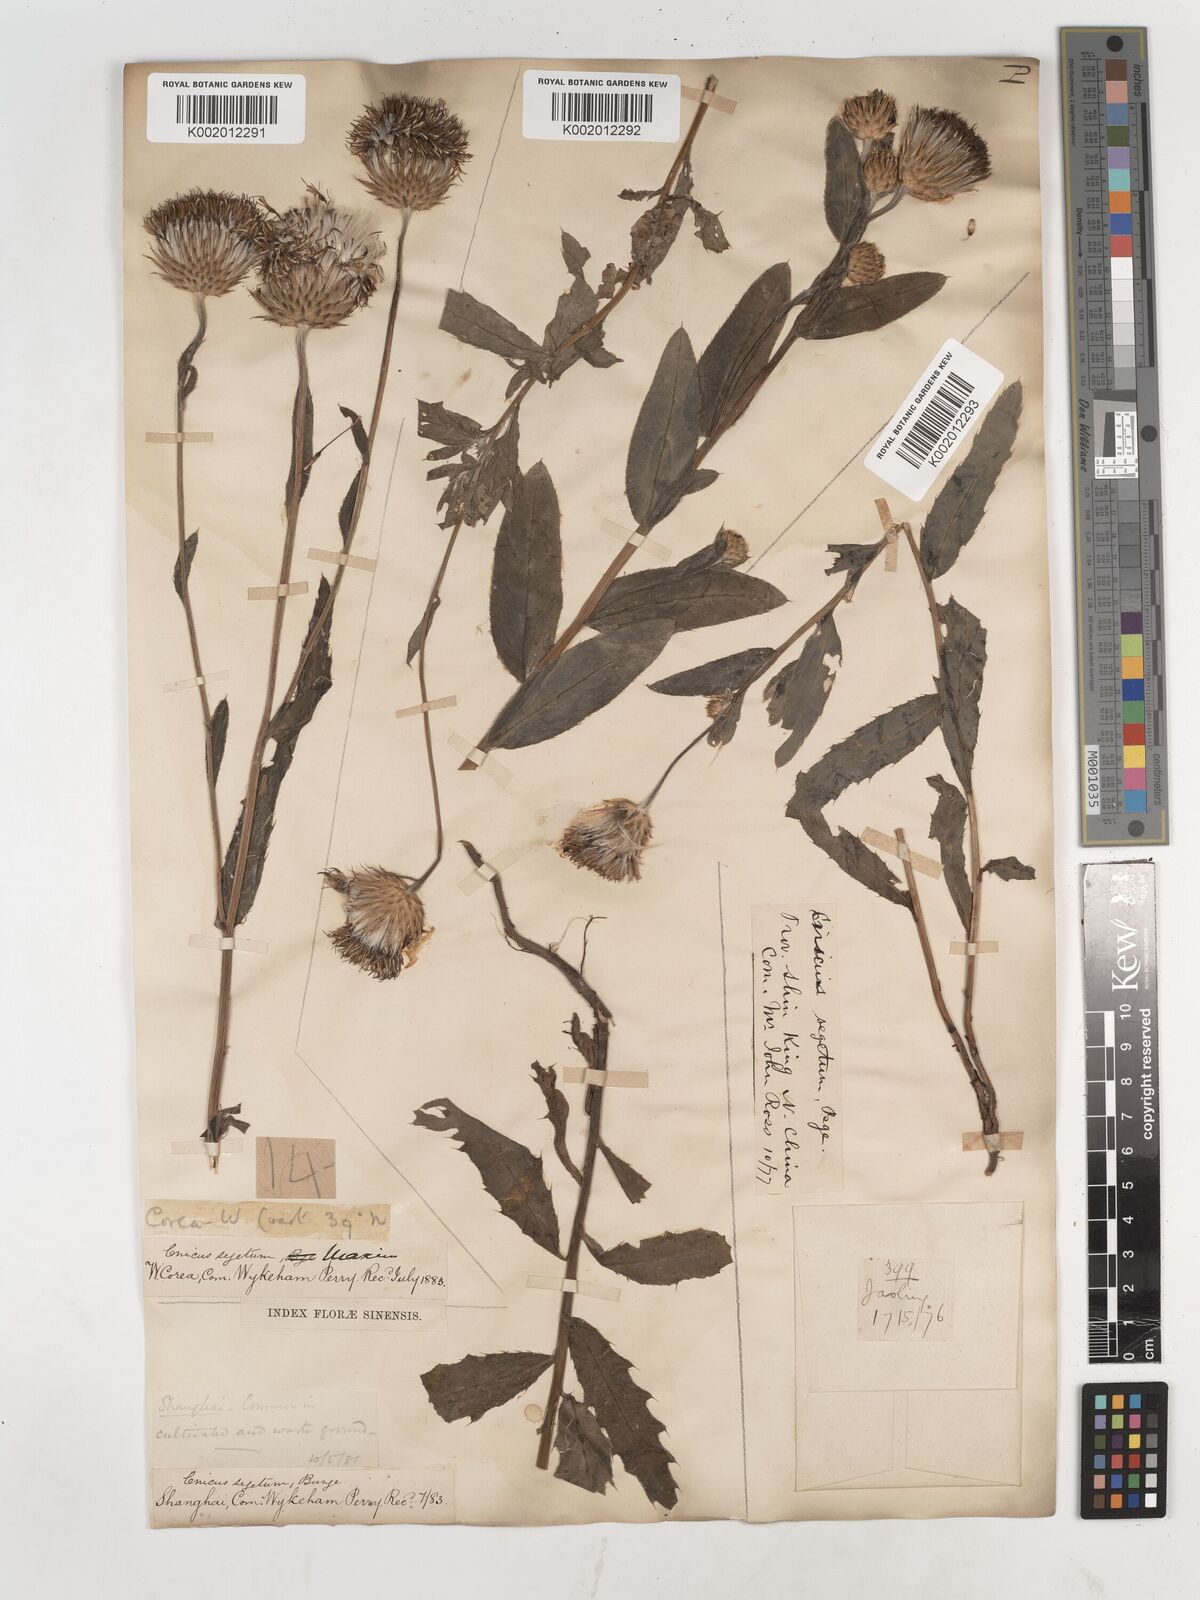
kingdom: Plantae
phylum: Tracheophyta
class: Magnoliopsida
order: Asterales
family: Asteraceae
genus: Cirsium
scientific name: Cirsium arvense
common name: Creeping thistle
